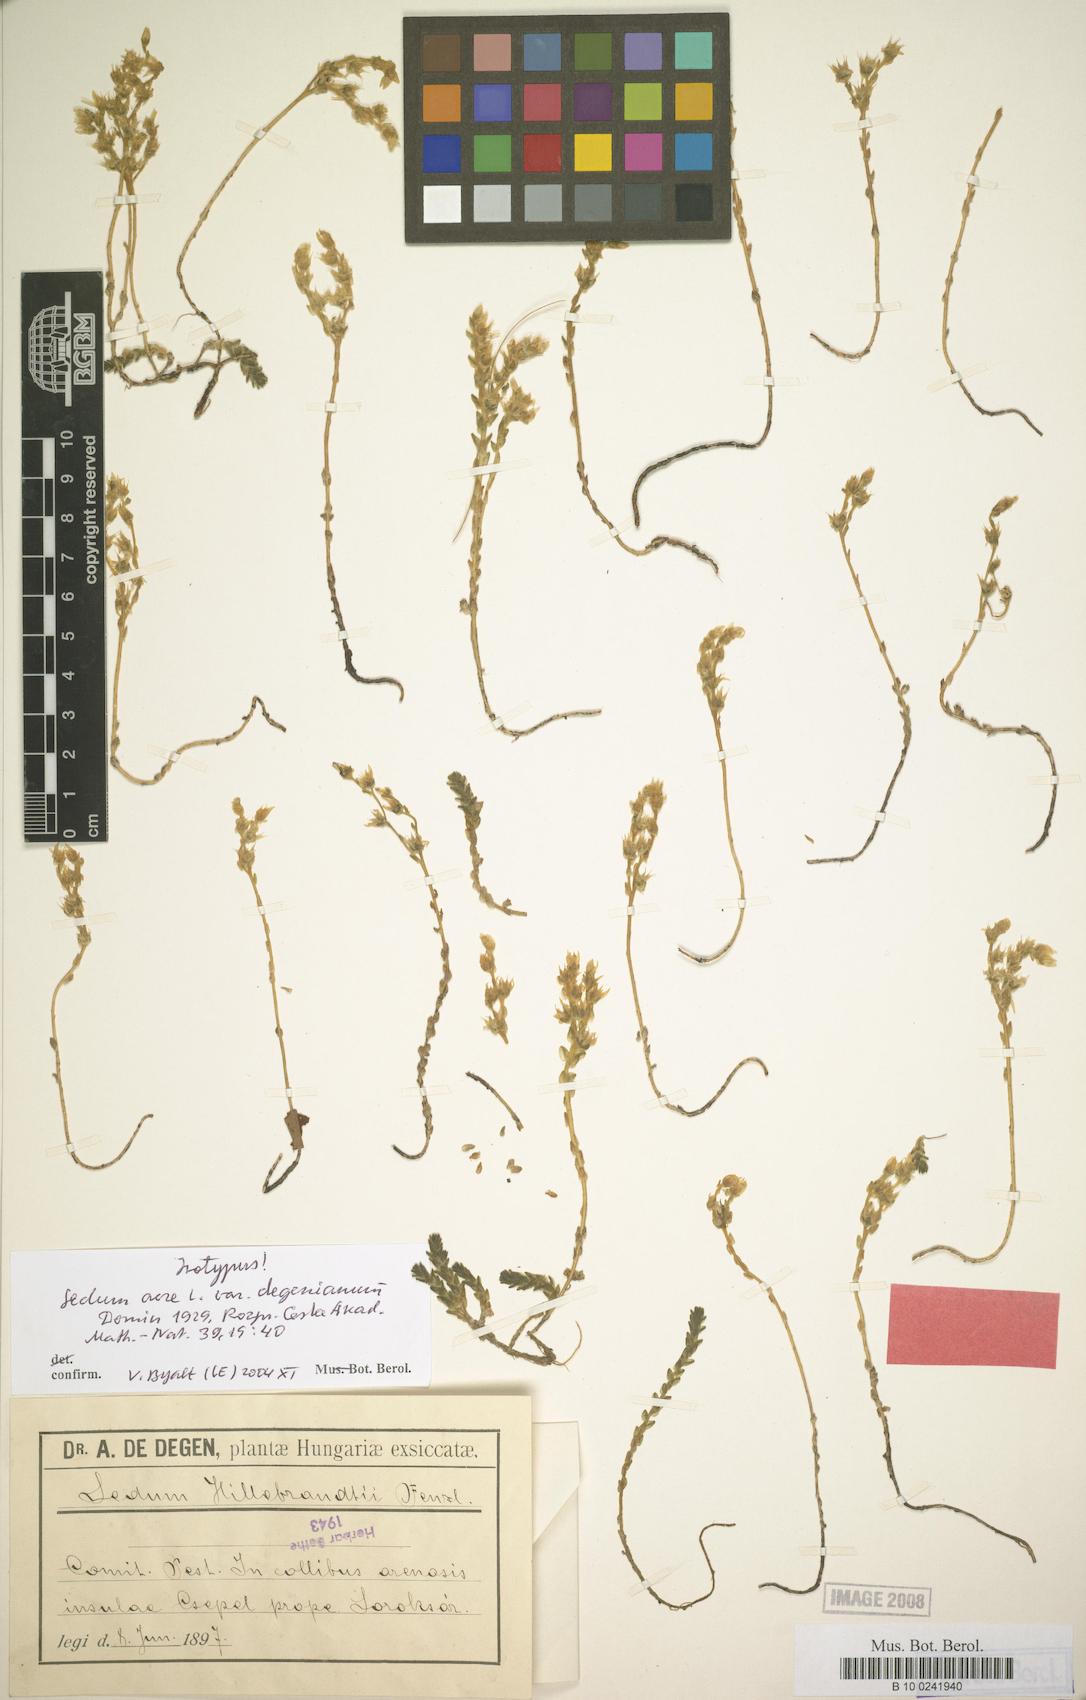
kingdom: Plantae
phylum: Tracheophyta
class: Magnoliopsida
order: Saxifragales
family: Crassulaceae
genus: Sedum
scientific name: Sedum acre
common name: Biting stonecrop
